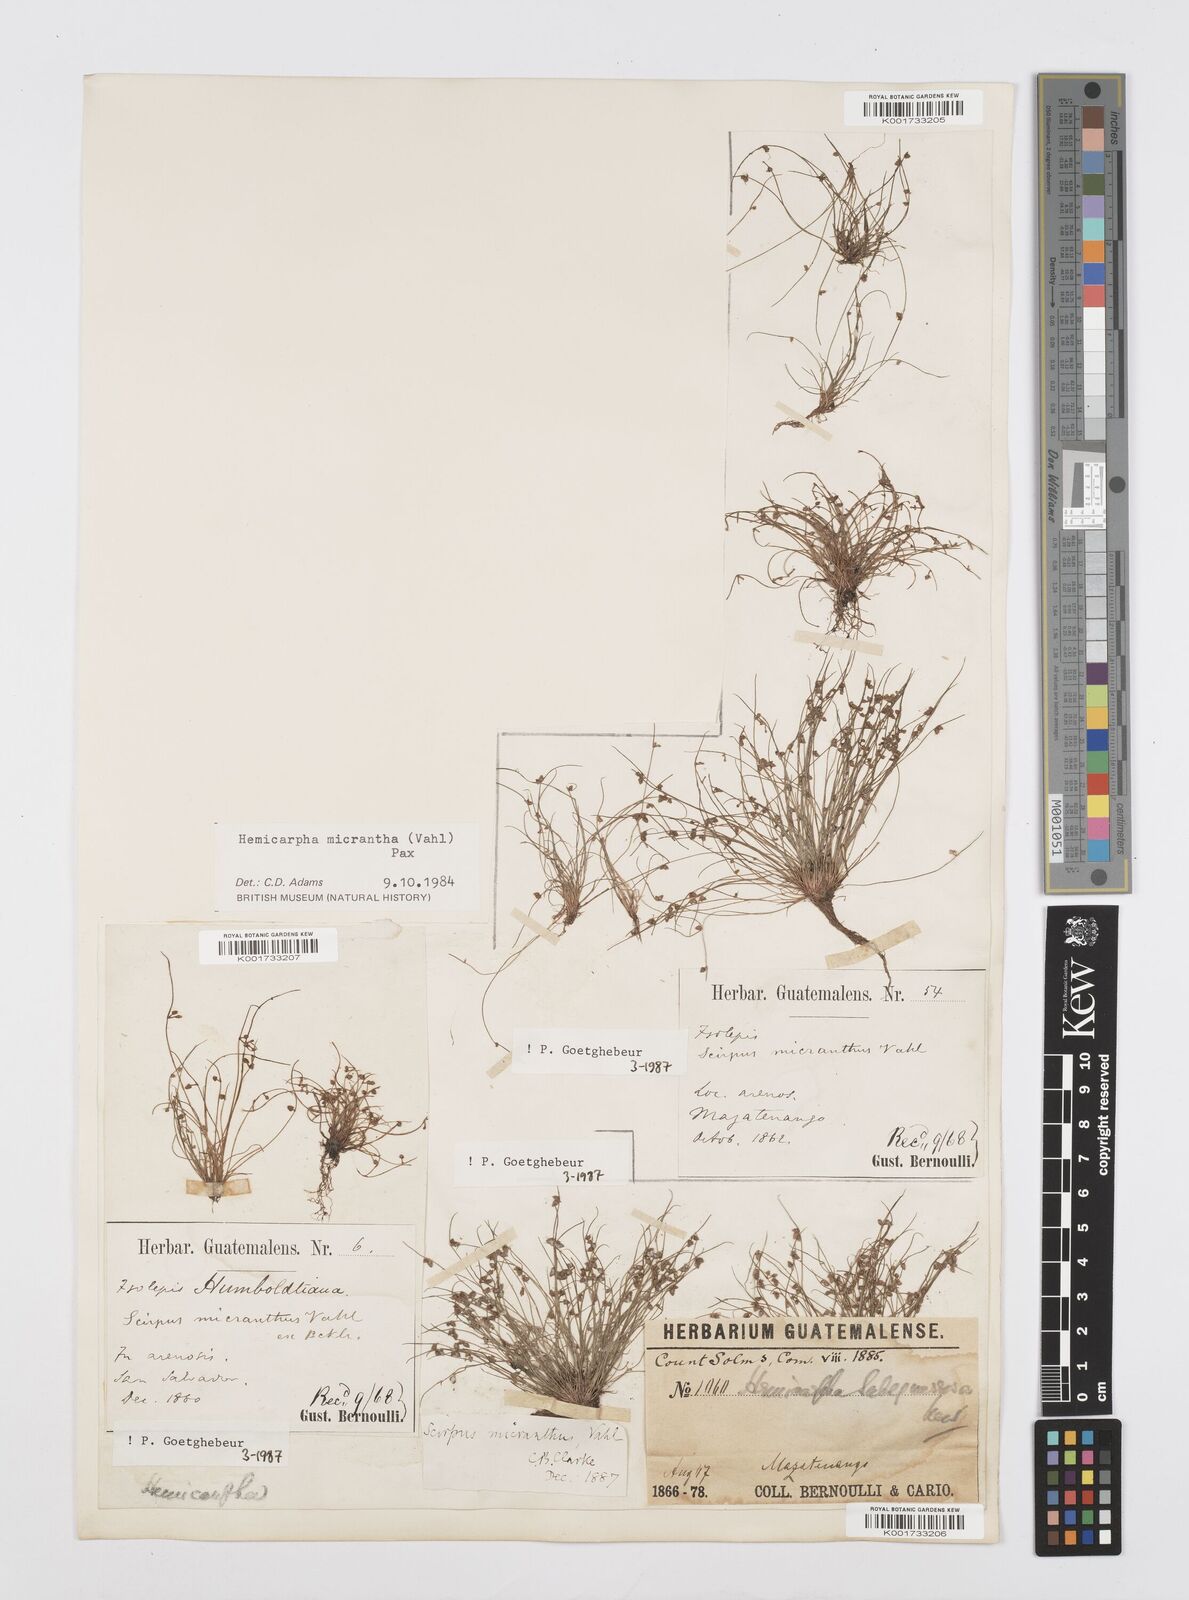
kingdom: Plantae
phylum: Tracheophyta
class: Liliopsida
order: Poales
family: Cyperaceae
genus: Cyperus
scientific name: Cyperus
